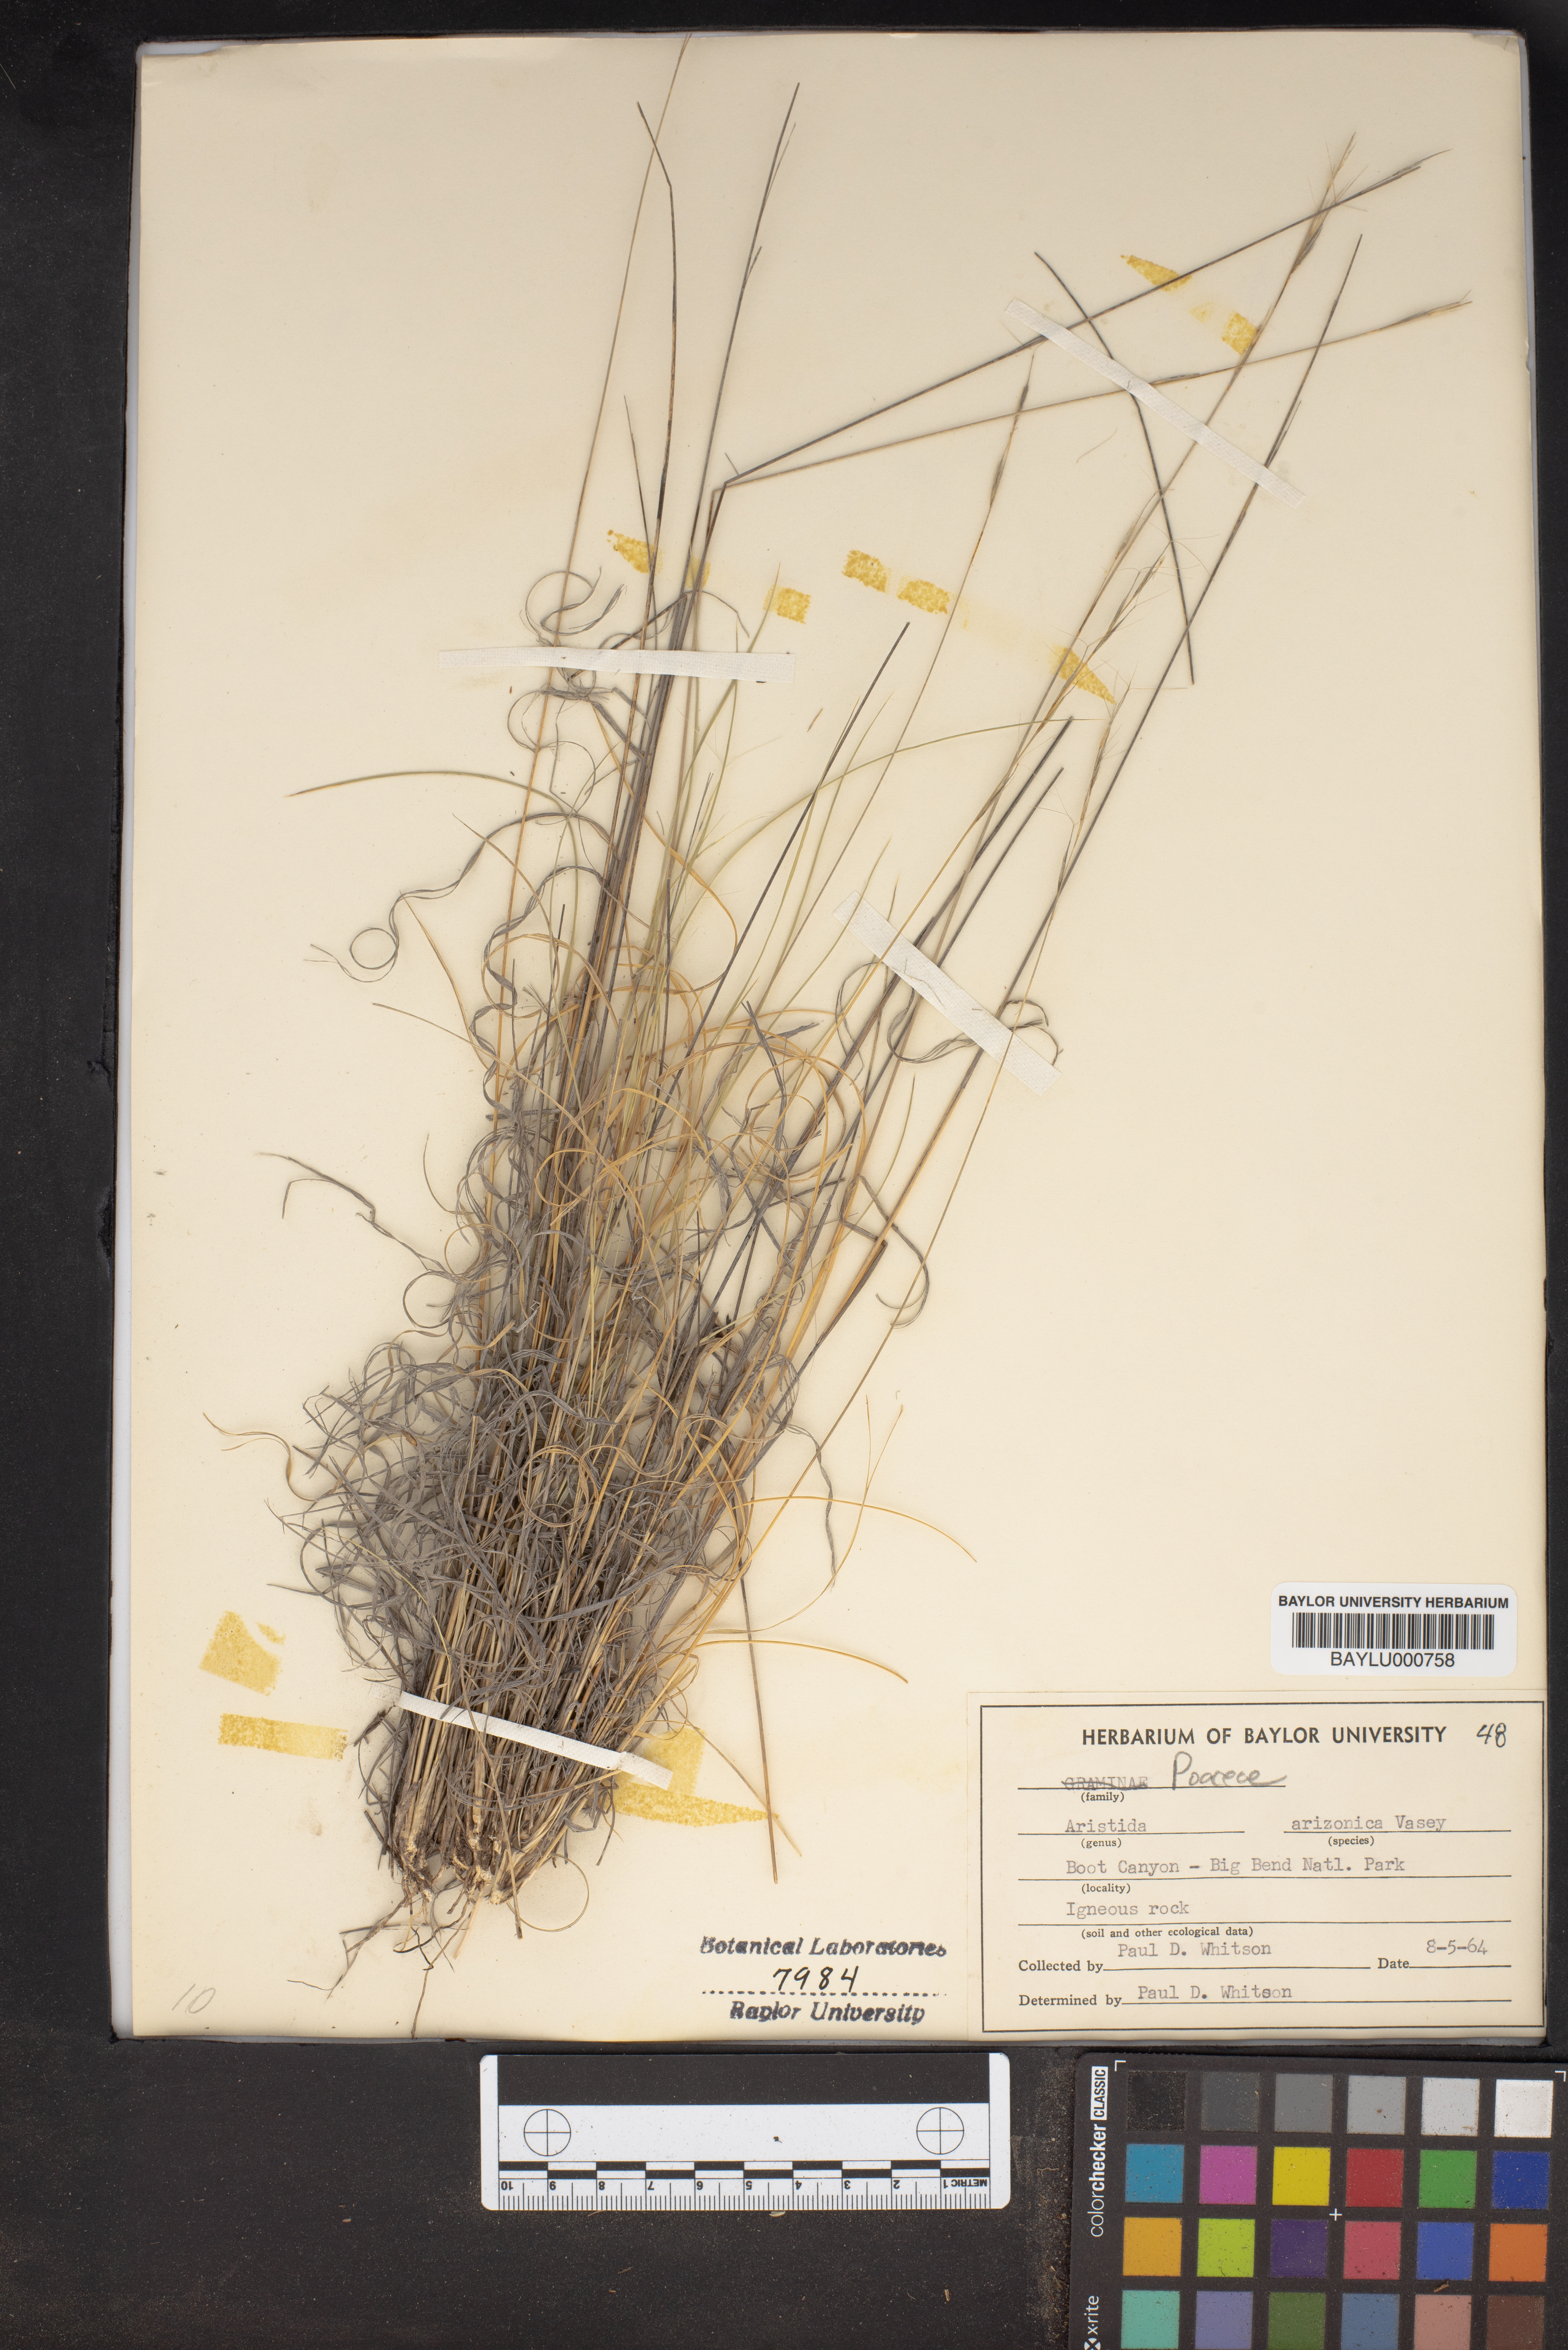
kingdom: Plantae
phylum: Tracheophyta
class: Liliopsida
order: Poales
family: Poaceae
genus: Aristida
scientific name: Aristida arizonica
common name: Arizona threeawn
